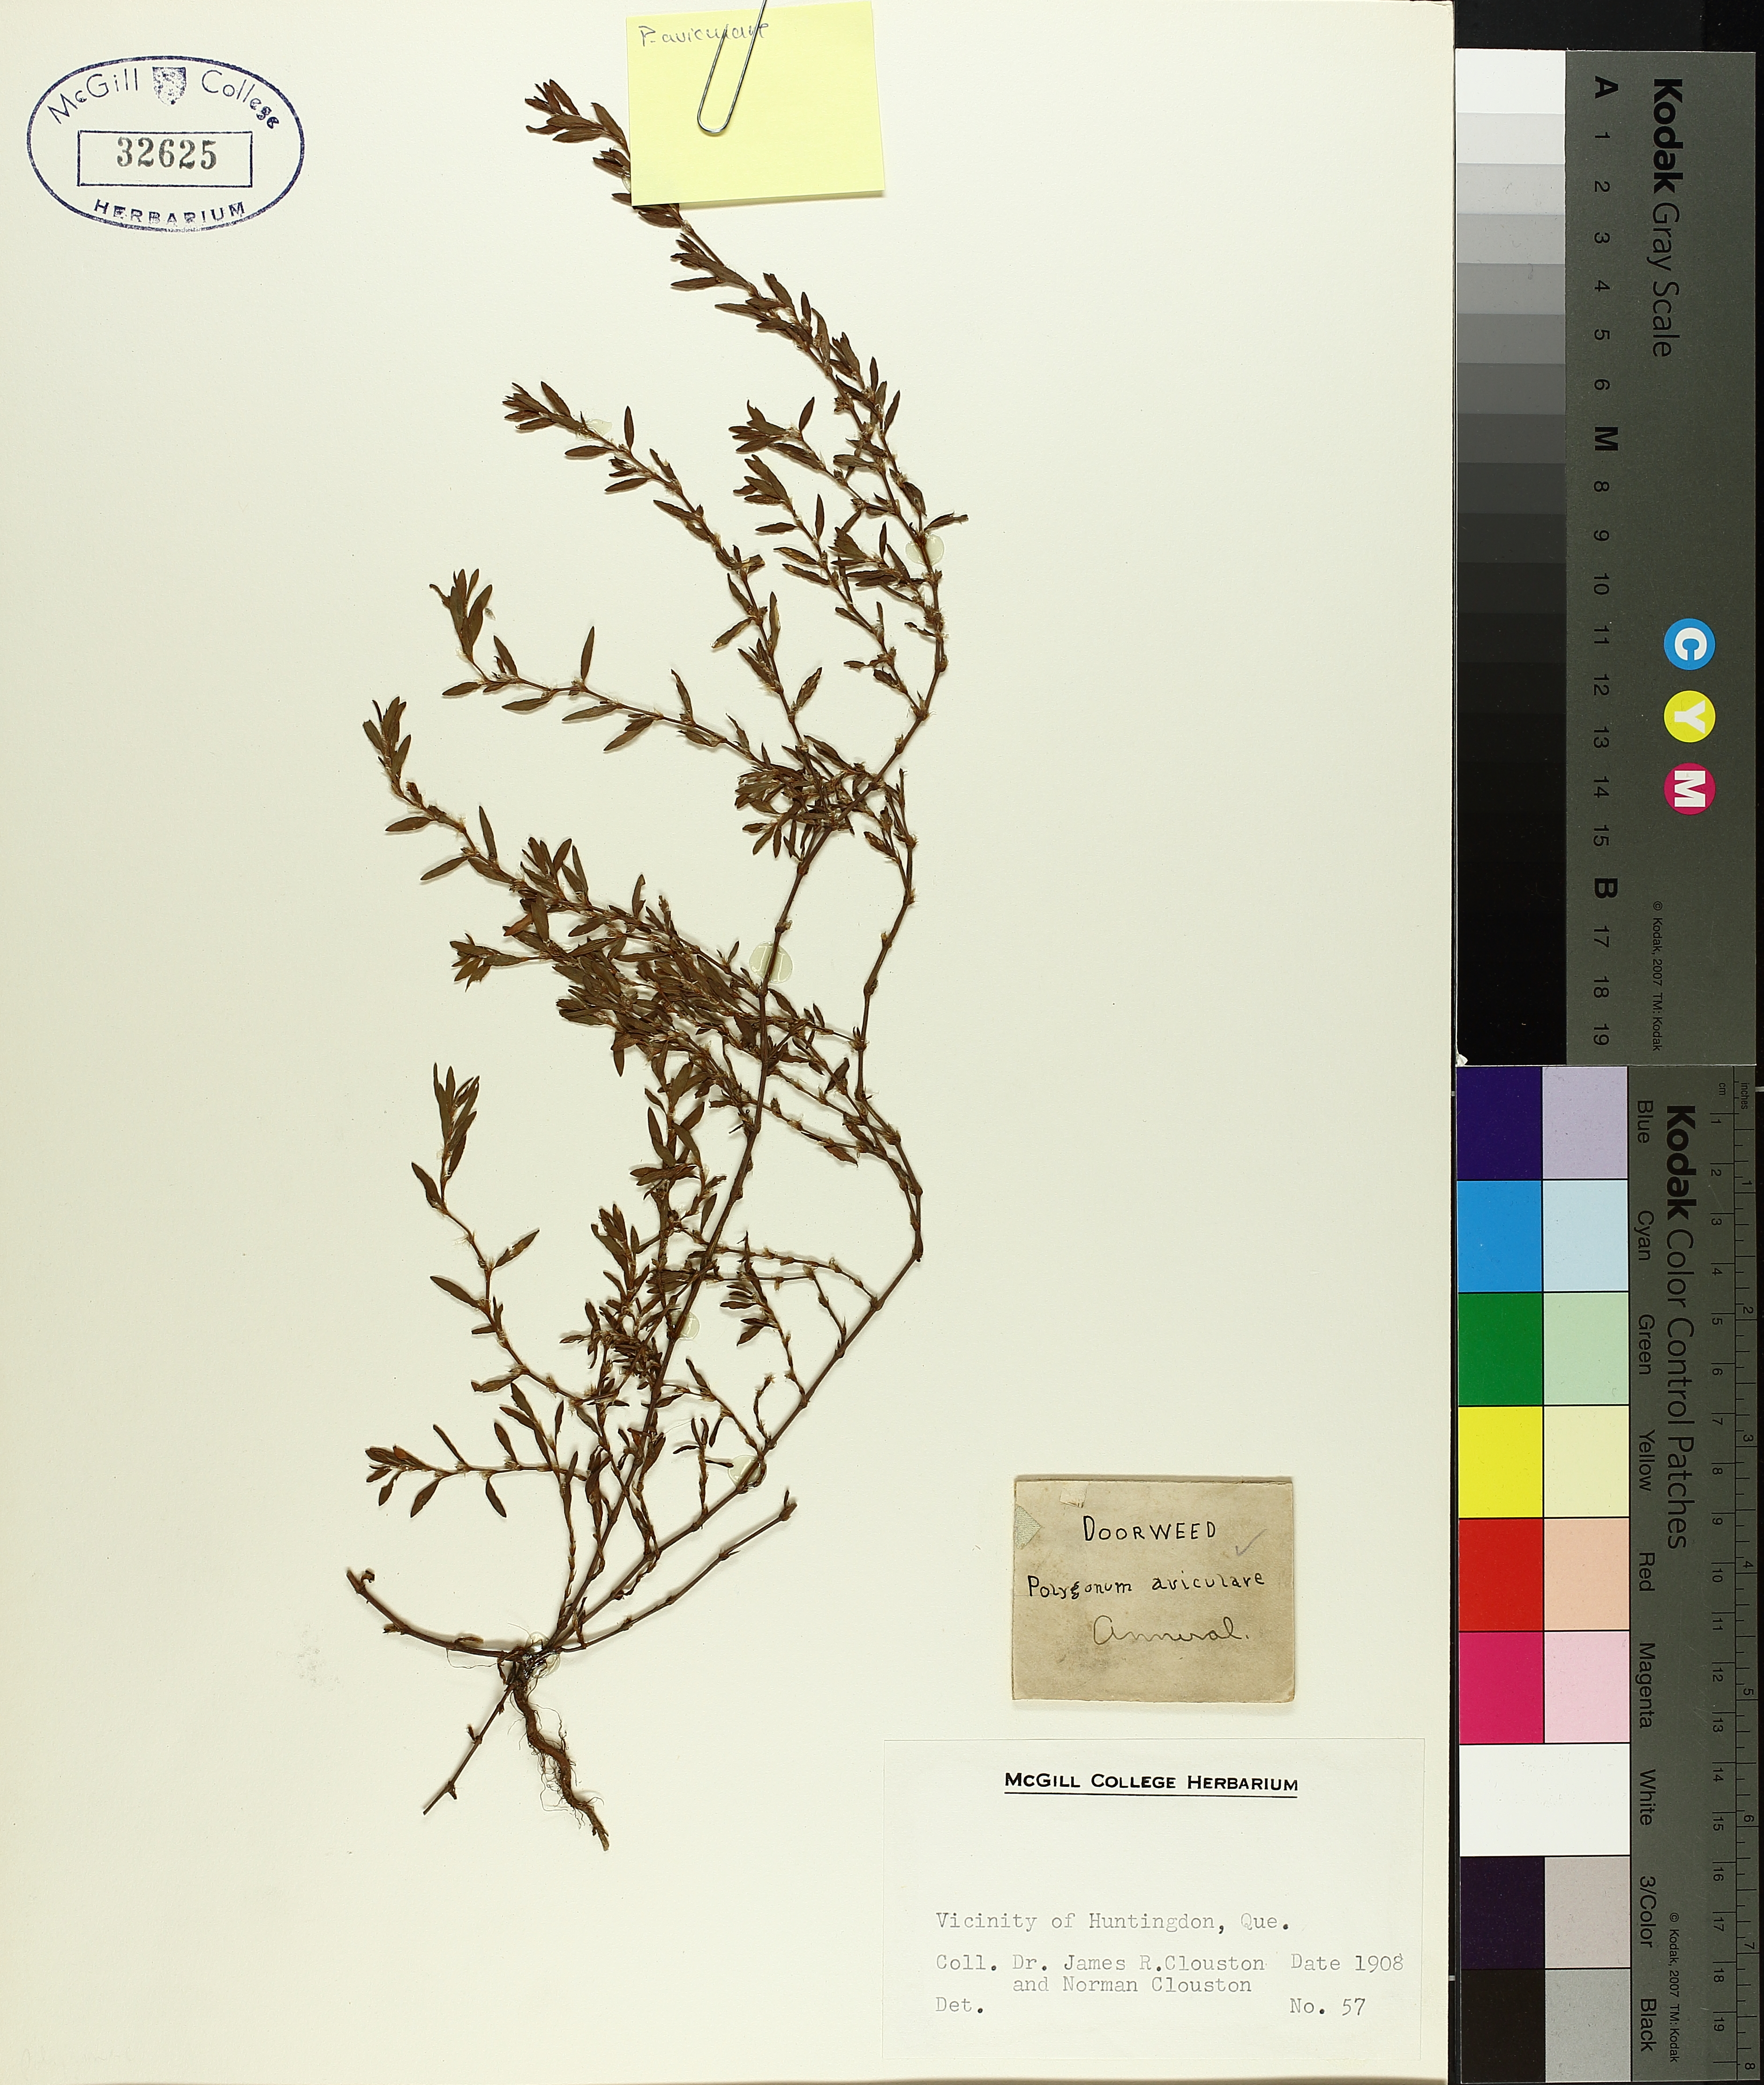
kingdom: Plantae
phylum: Tracheophyta
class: Magnoliopsida
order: Caryophyllales
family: Polygonaceae
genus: Polygonum
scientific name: Polygonum aviculare
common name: Prostrate knotweed
